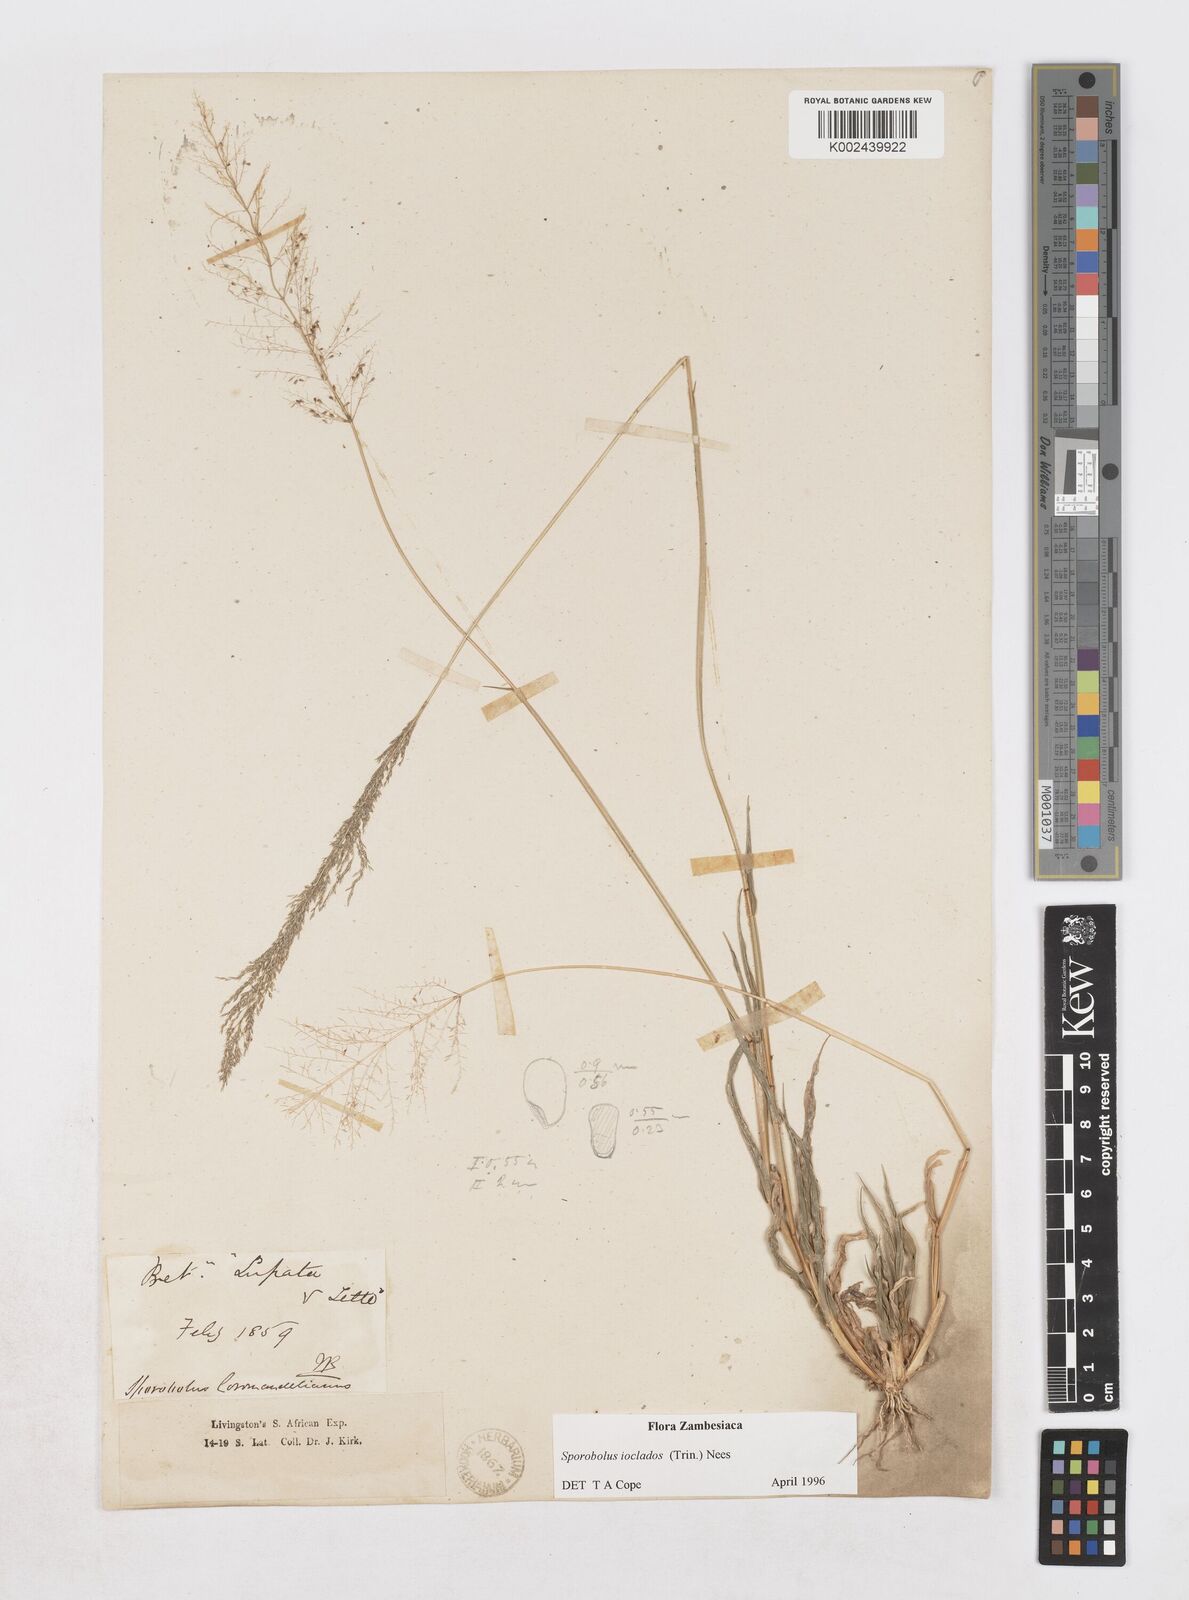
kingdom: Plantae
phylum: Tracheophyta
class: Liliopsida
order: Poales
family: Poaceae
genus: Sporobolus
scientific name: Sporobolus ioclados
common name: Pan dropseed
